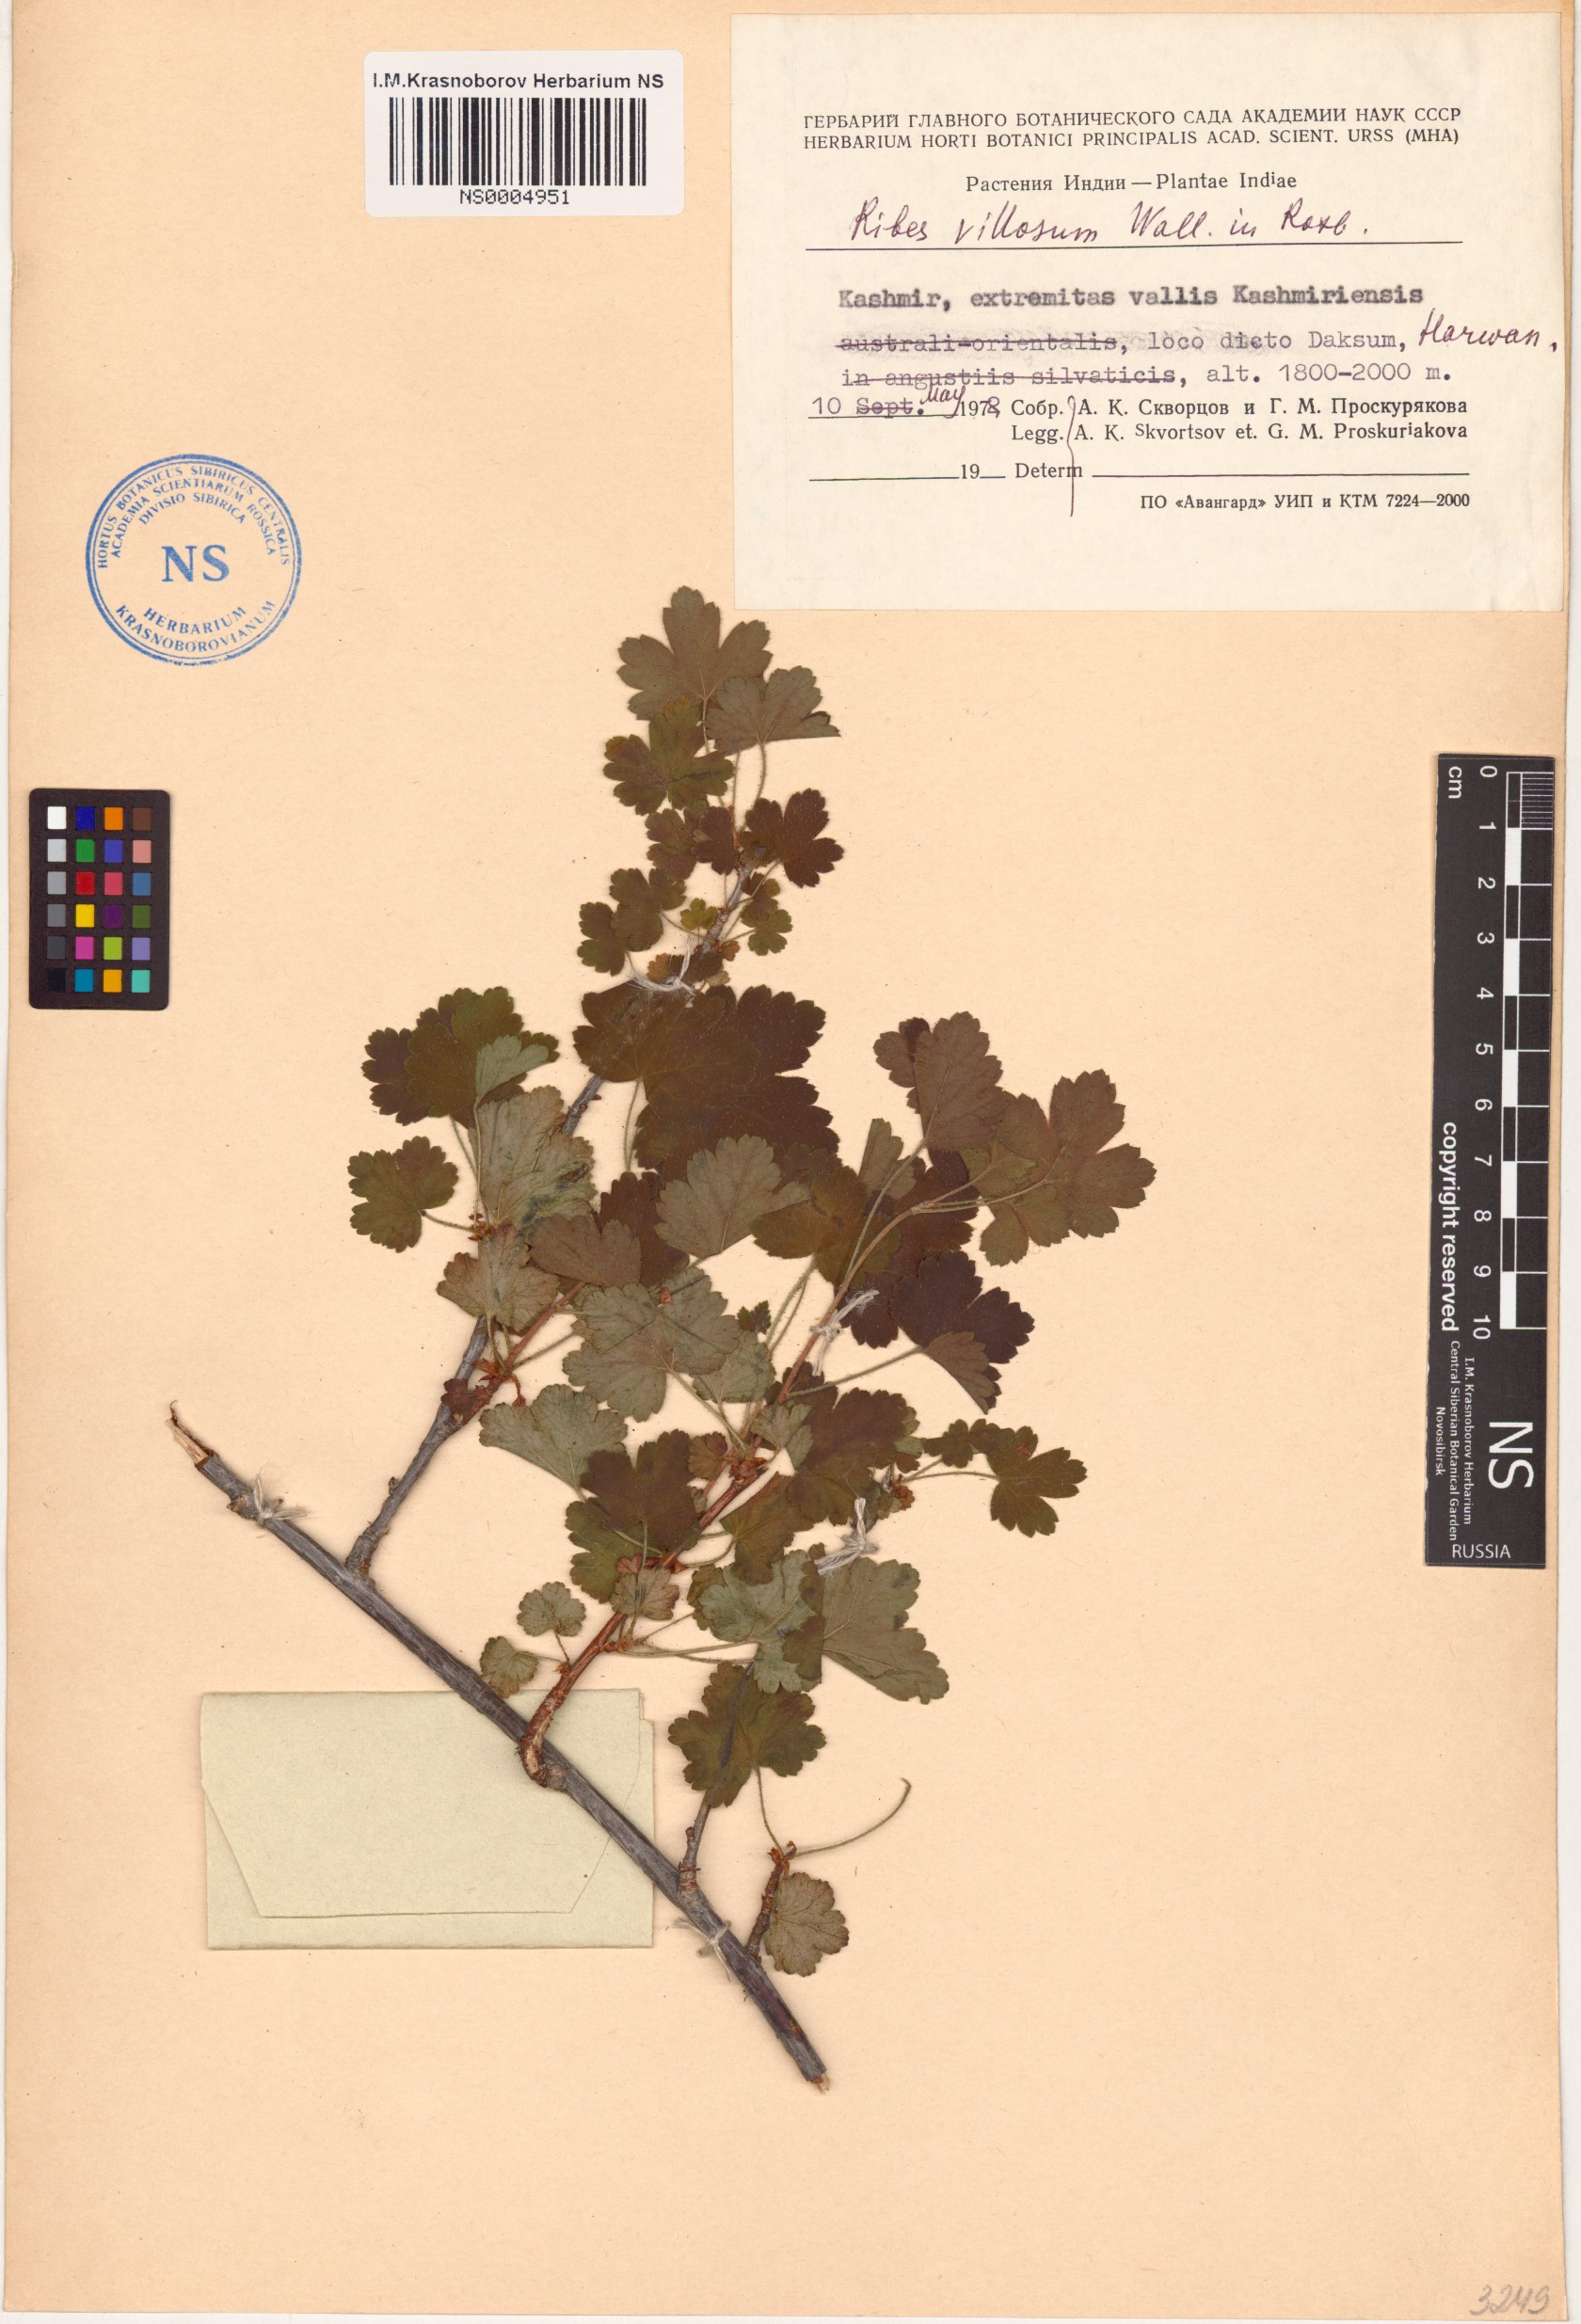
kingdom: Plantae
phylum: Tracheophyta
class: Magnoliopsida
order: Saxifragales
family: Grossulariaceae
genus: Ribes
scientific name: Ribes villosum
